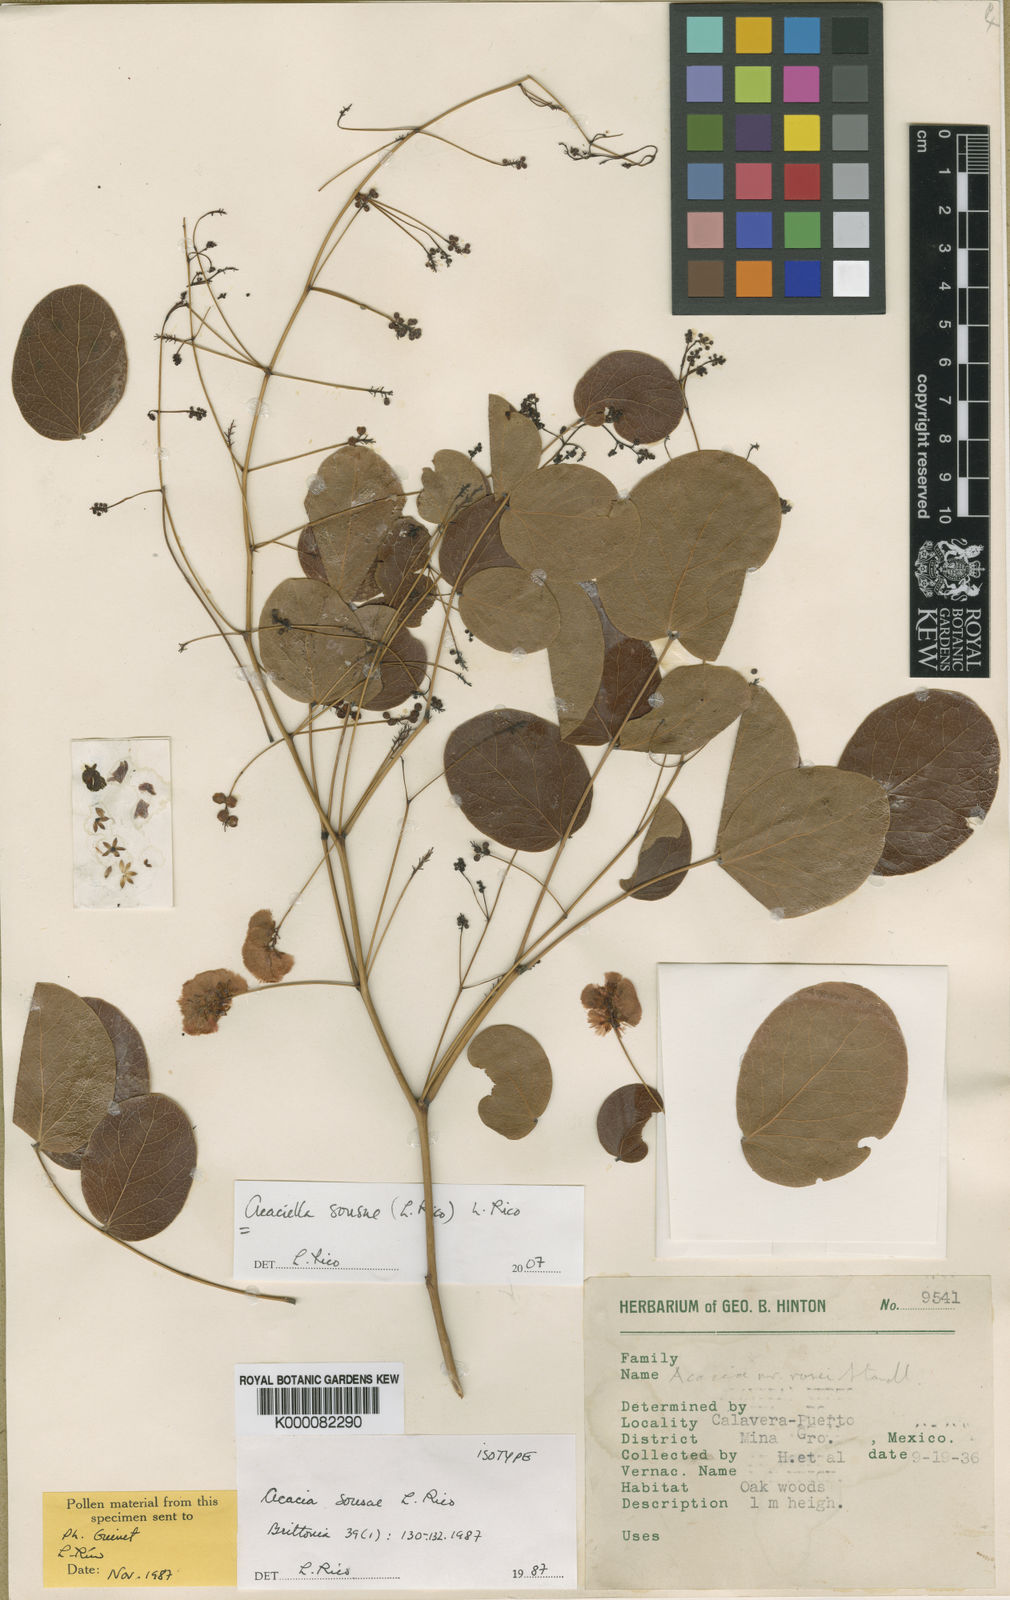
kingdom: Plantae
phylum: Tracheophyta
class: Magnoliopsida
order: Fabales
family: Fabaceae
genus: Acaciella
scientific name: Acaciella sousae
